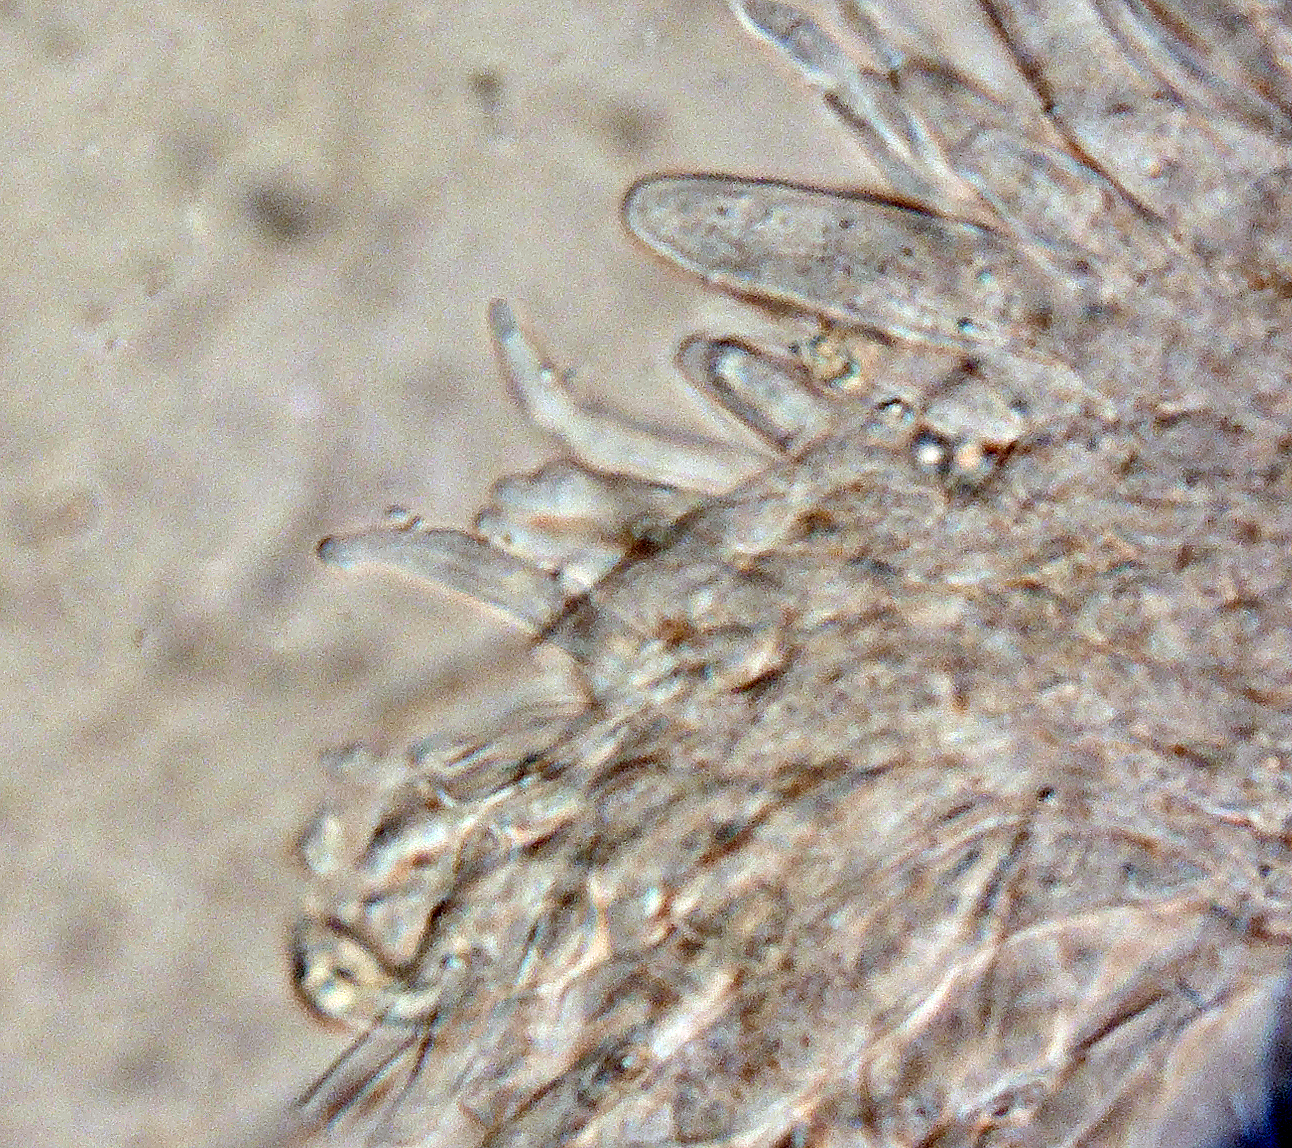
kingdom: Fungi
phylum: Ascomycota
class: Leotiomycetes
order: Helotiales
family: Pezizellaceae
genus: Phialina
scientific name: Phialina anomala
